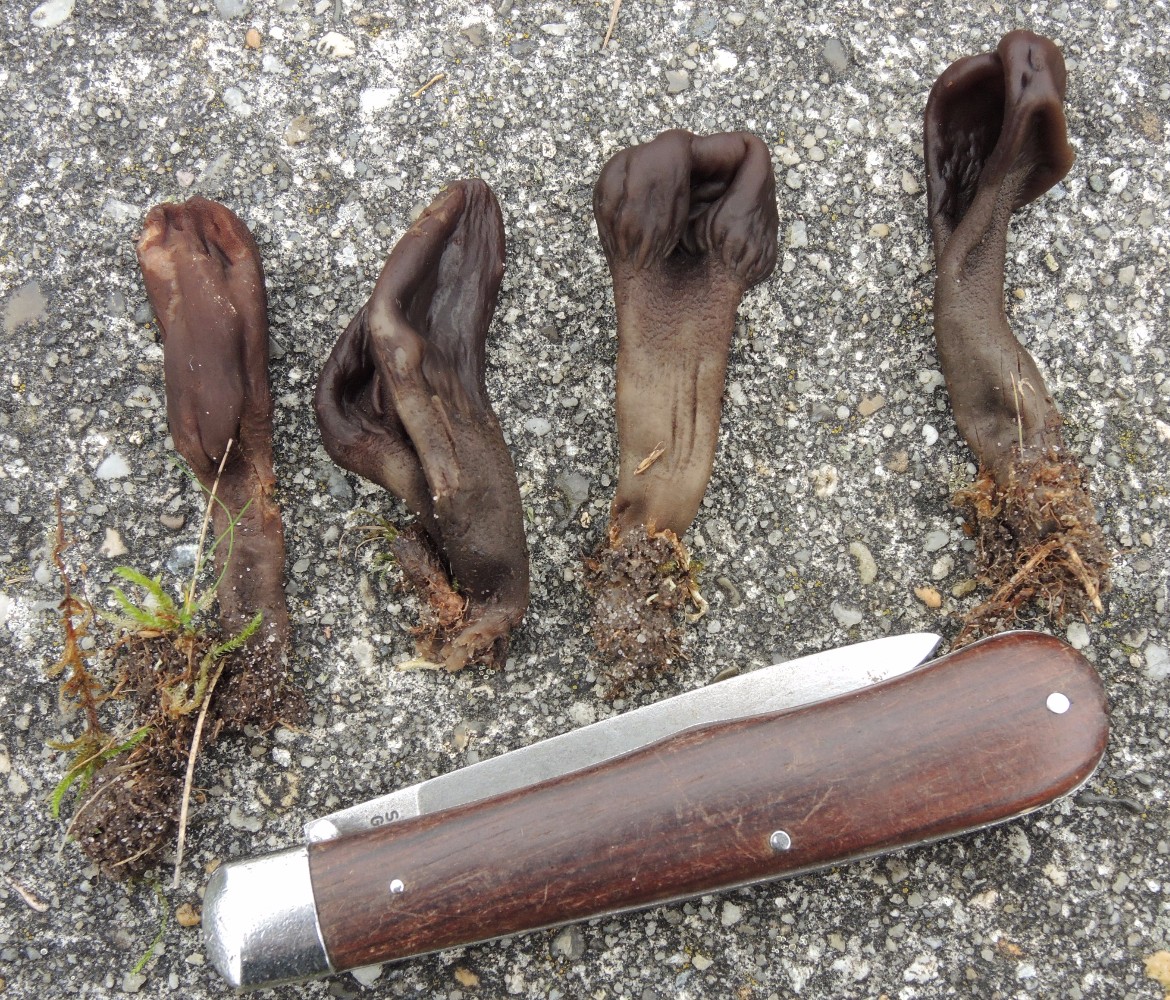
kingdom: Fungi
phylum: Ascomycota
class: Geoglossomycetes
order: Geoglossales
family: Geoglossaceae
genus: Geoglossum
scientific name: Geoglossum atropurpureum
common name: purpursort farvetunge
